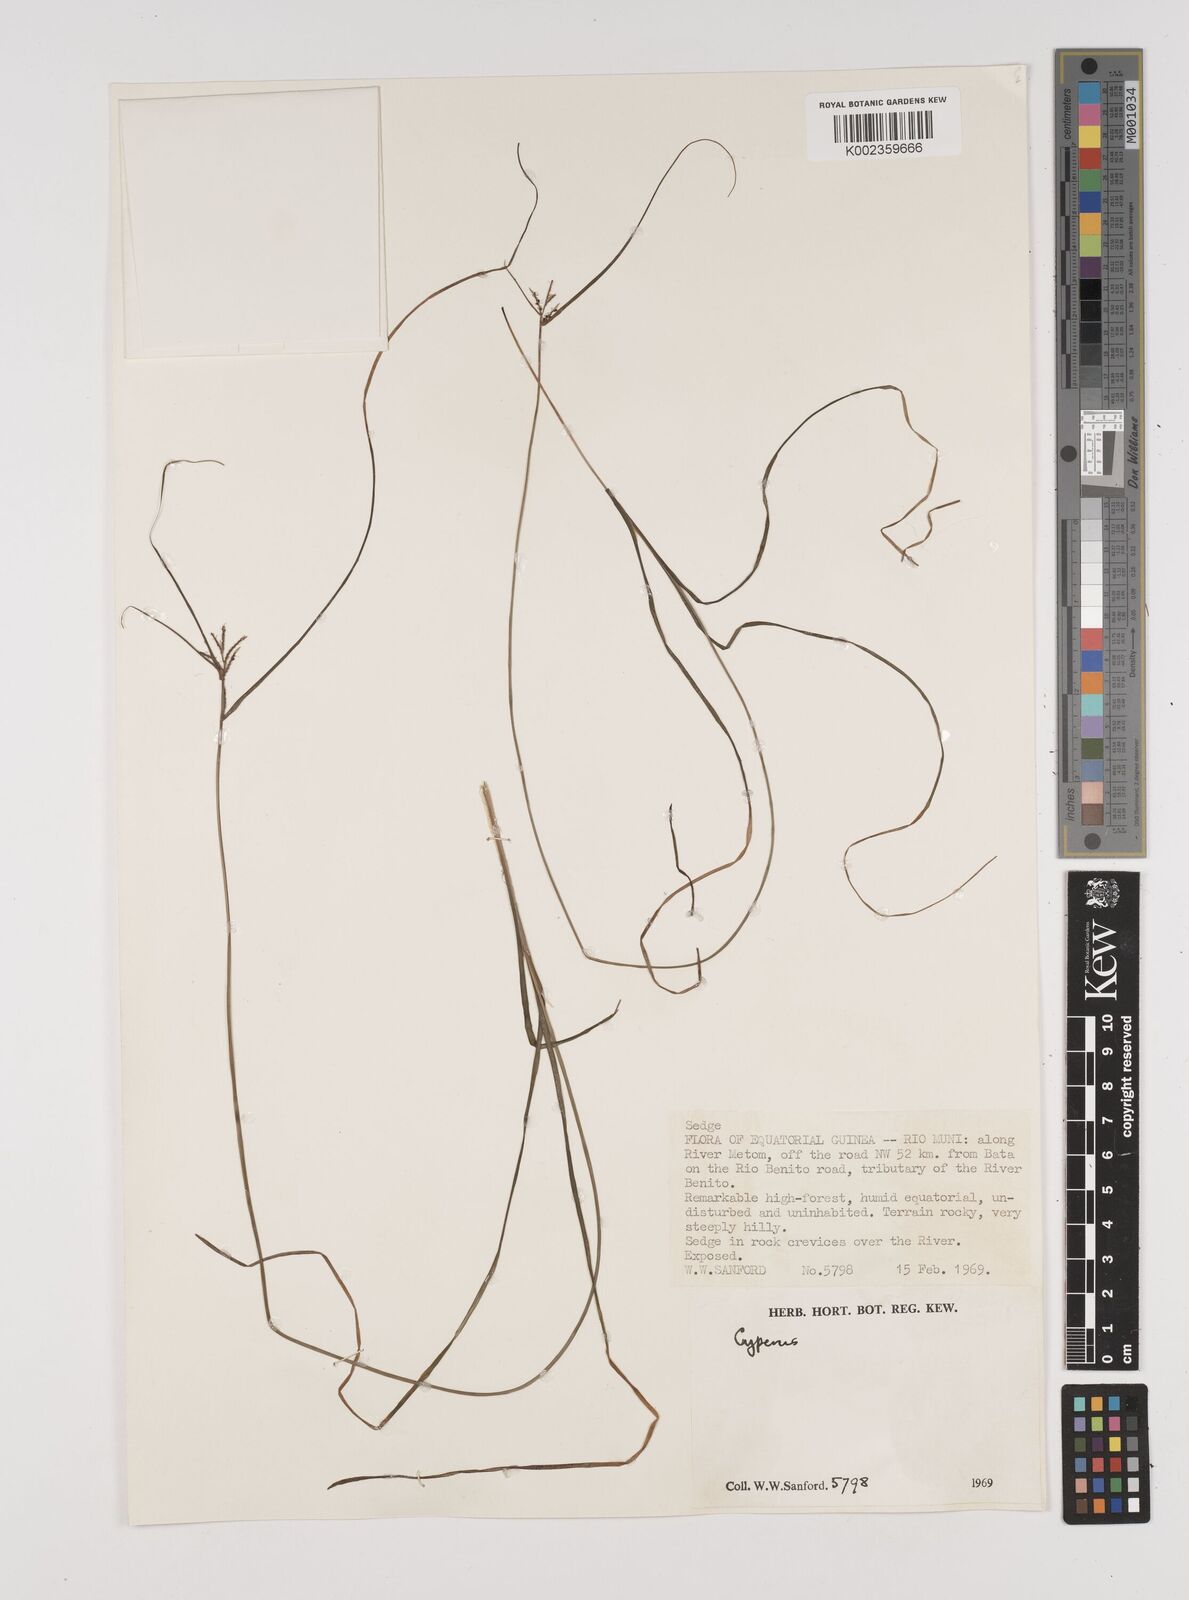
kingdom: Plantae
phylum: Tracheophyta
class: Liliopsida
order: Poales
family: Cyperaceae
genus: Cyperus
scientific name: Cyperus
